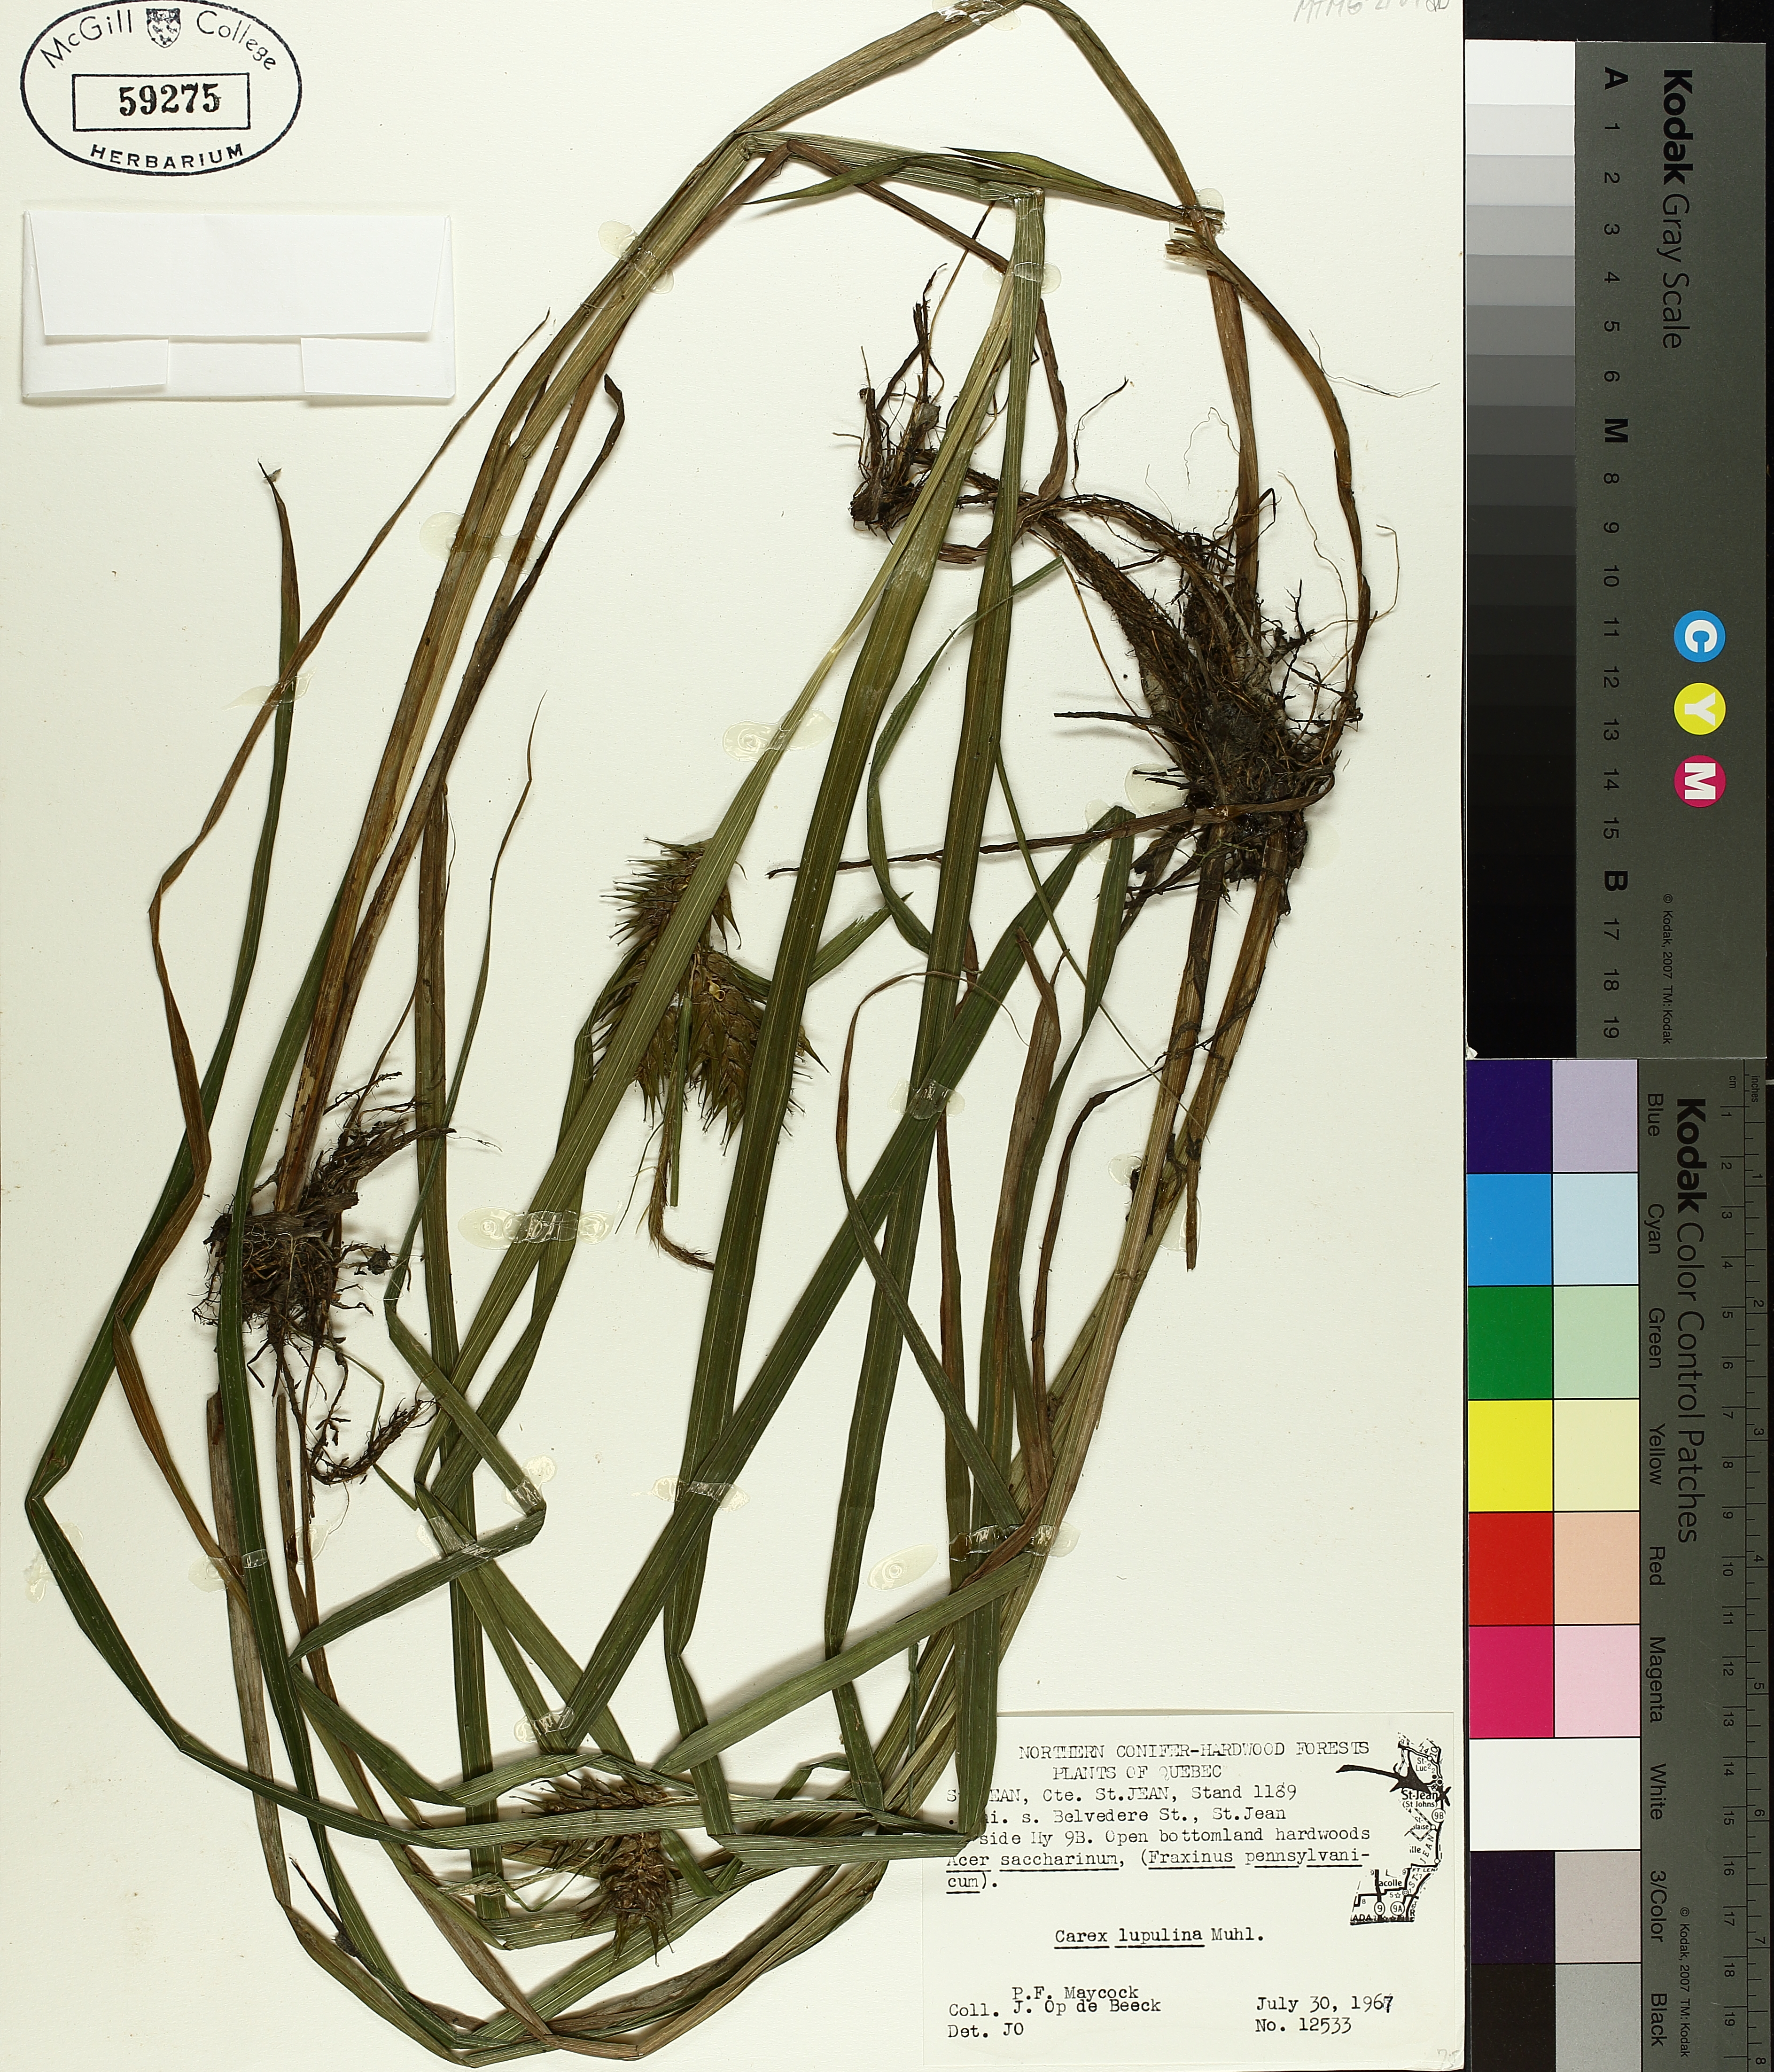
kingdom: Plantae
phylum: Tracheophyta
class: Liliopsida
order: Poales
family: Cyperaceae
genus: Carex
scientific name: Carex lupulina
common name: Hop sedge
